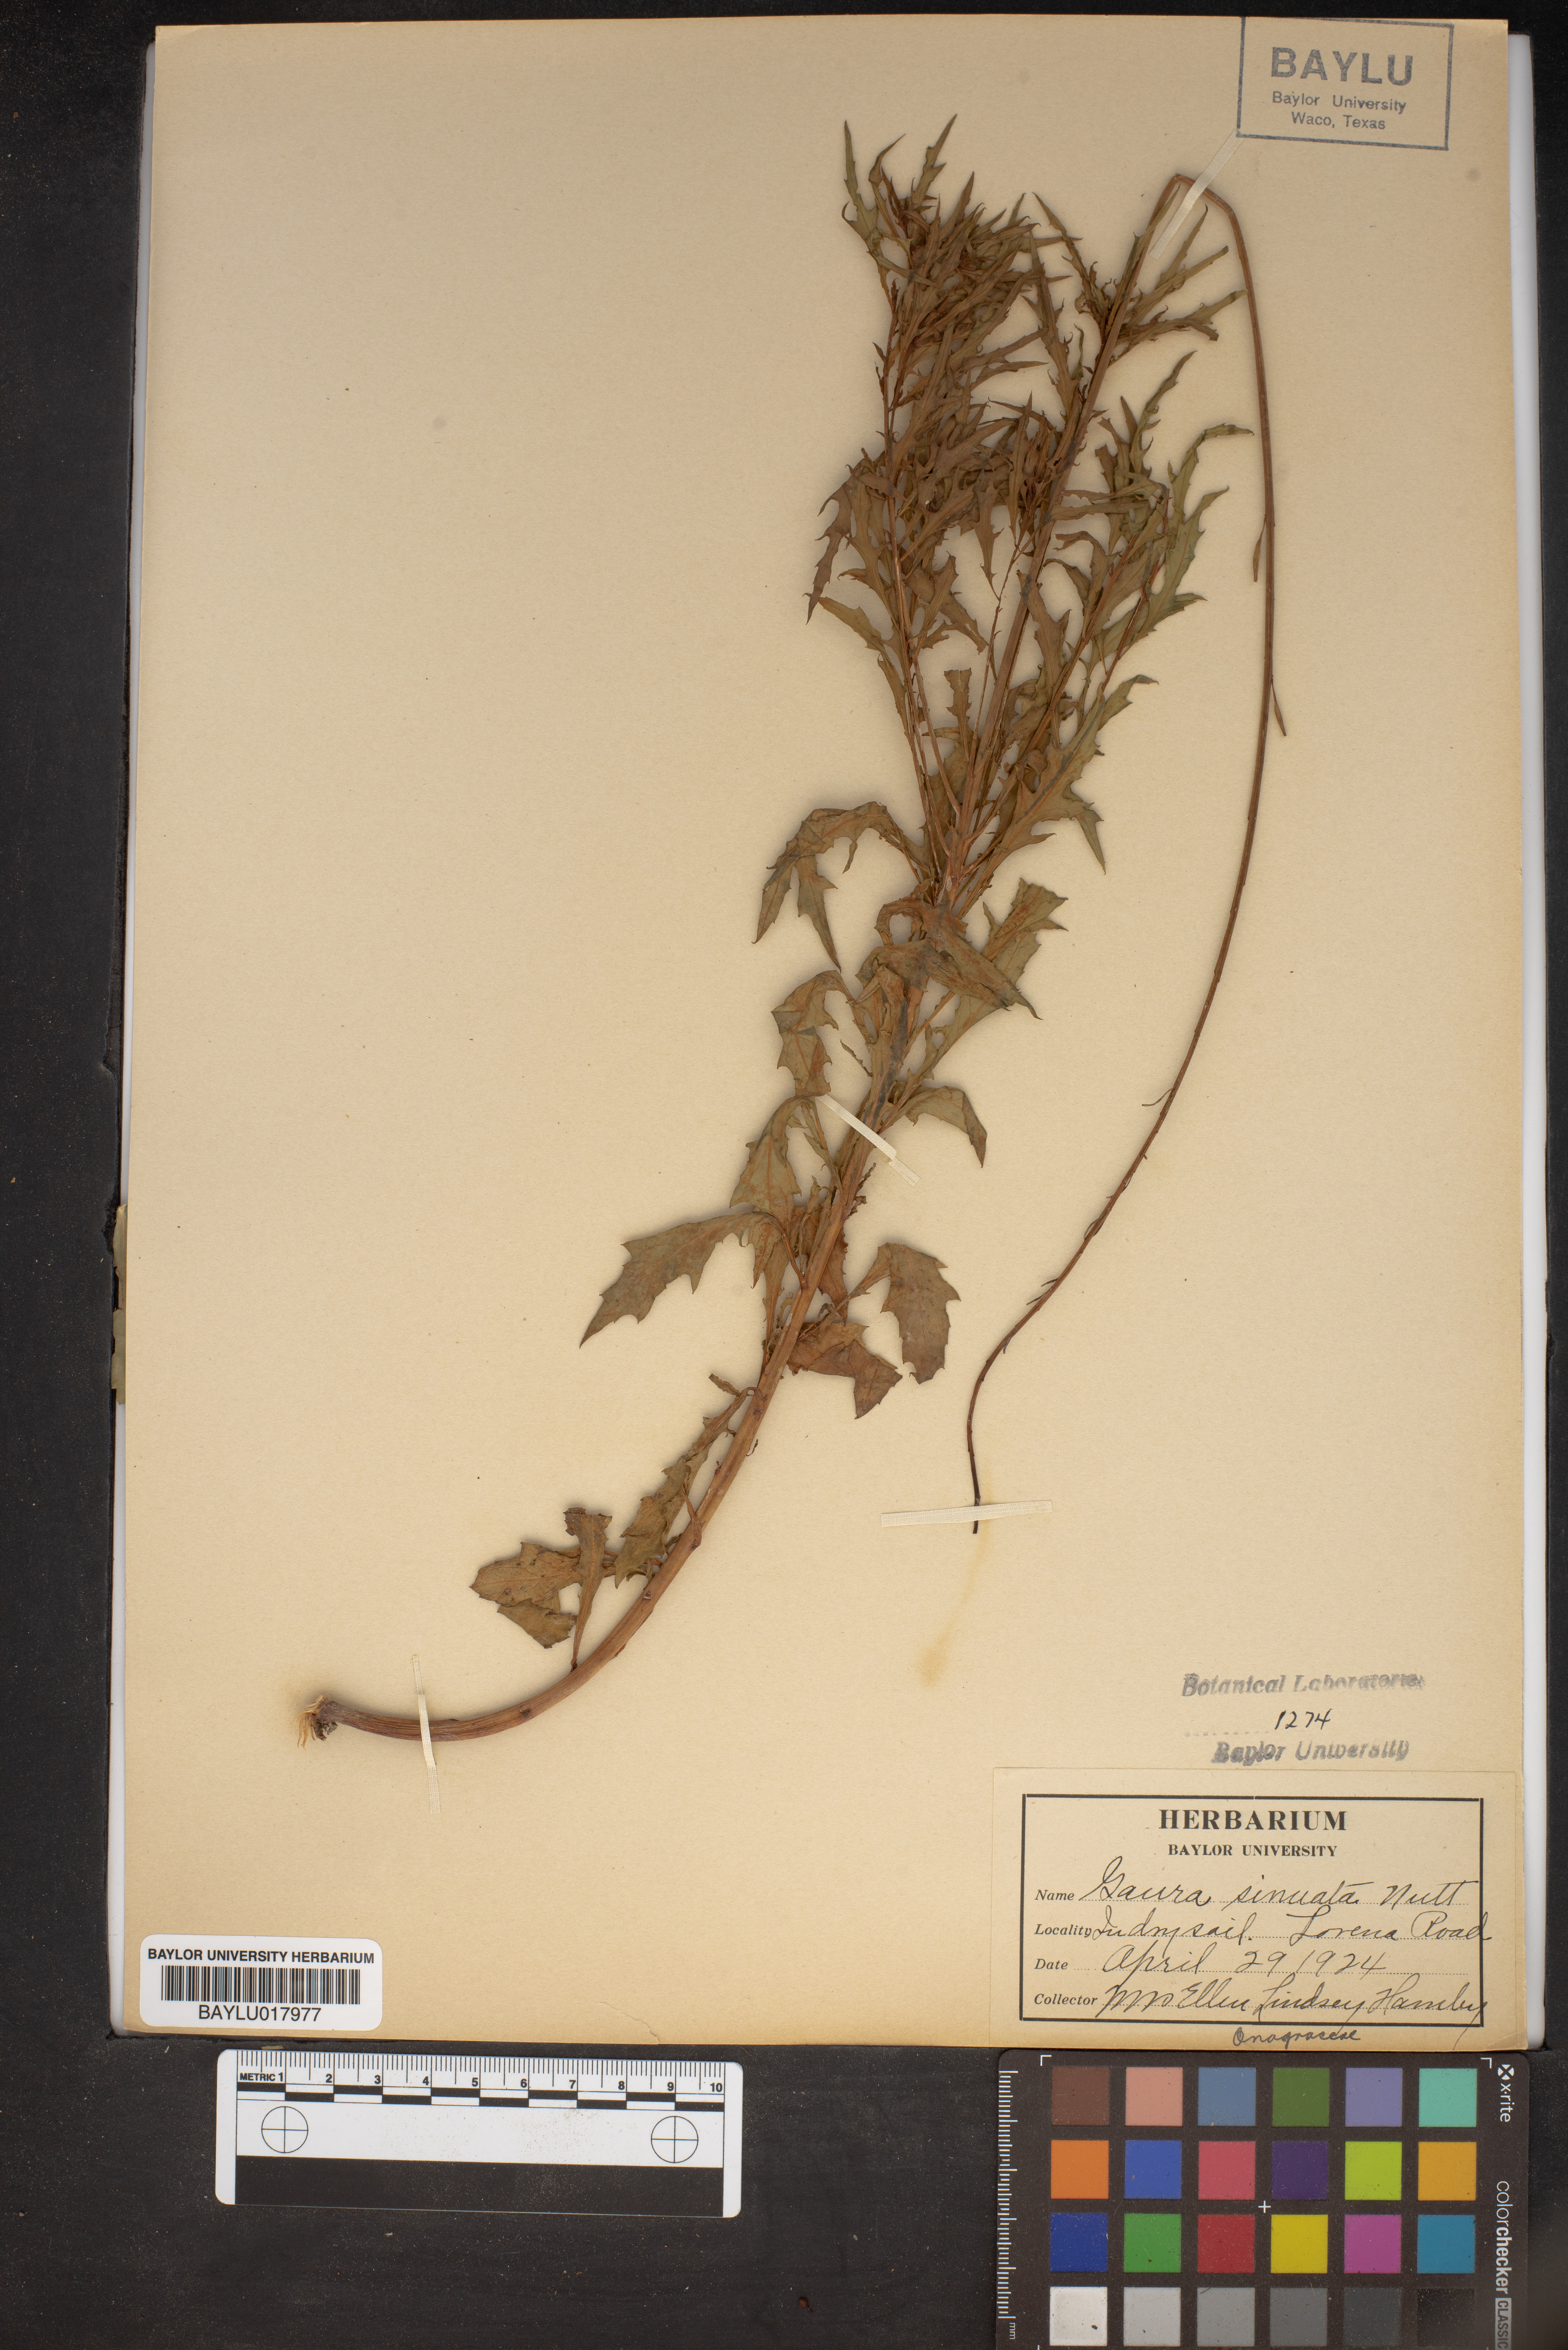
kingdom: Plantae
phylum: Tracheophyta
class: Magnoliopsida
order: Myrtales
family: Onagraceae
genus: Oenothera
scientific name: Oenothera sinuosa
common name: Wavyleaf beeblossom
